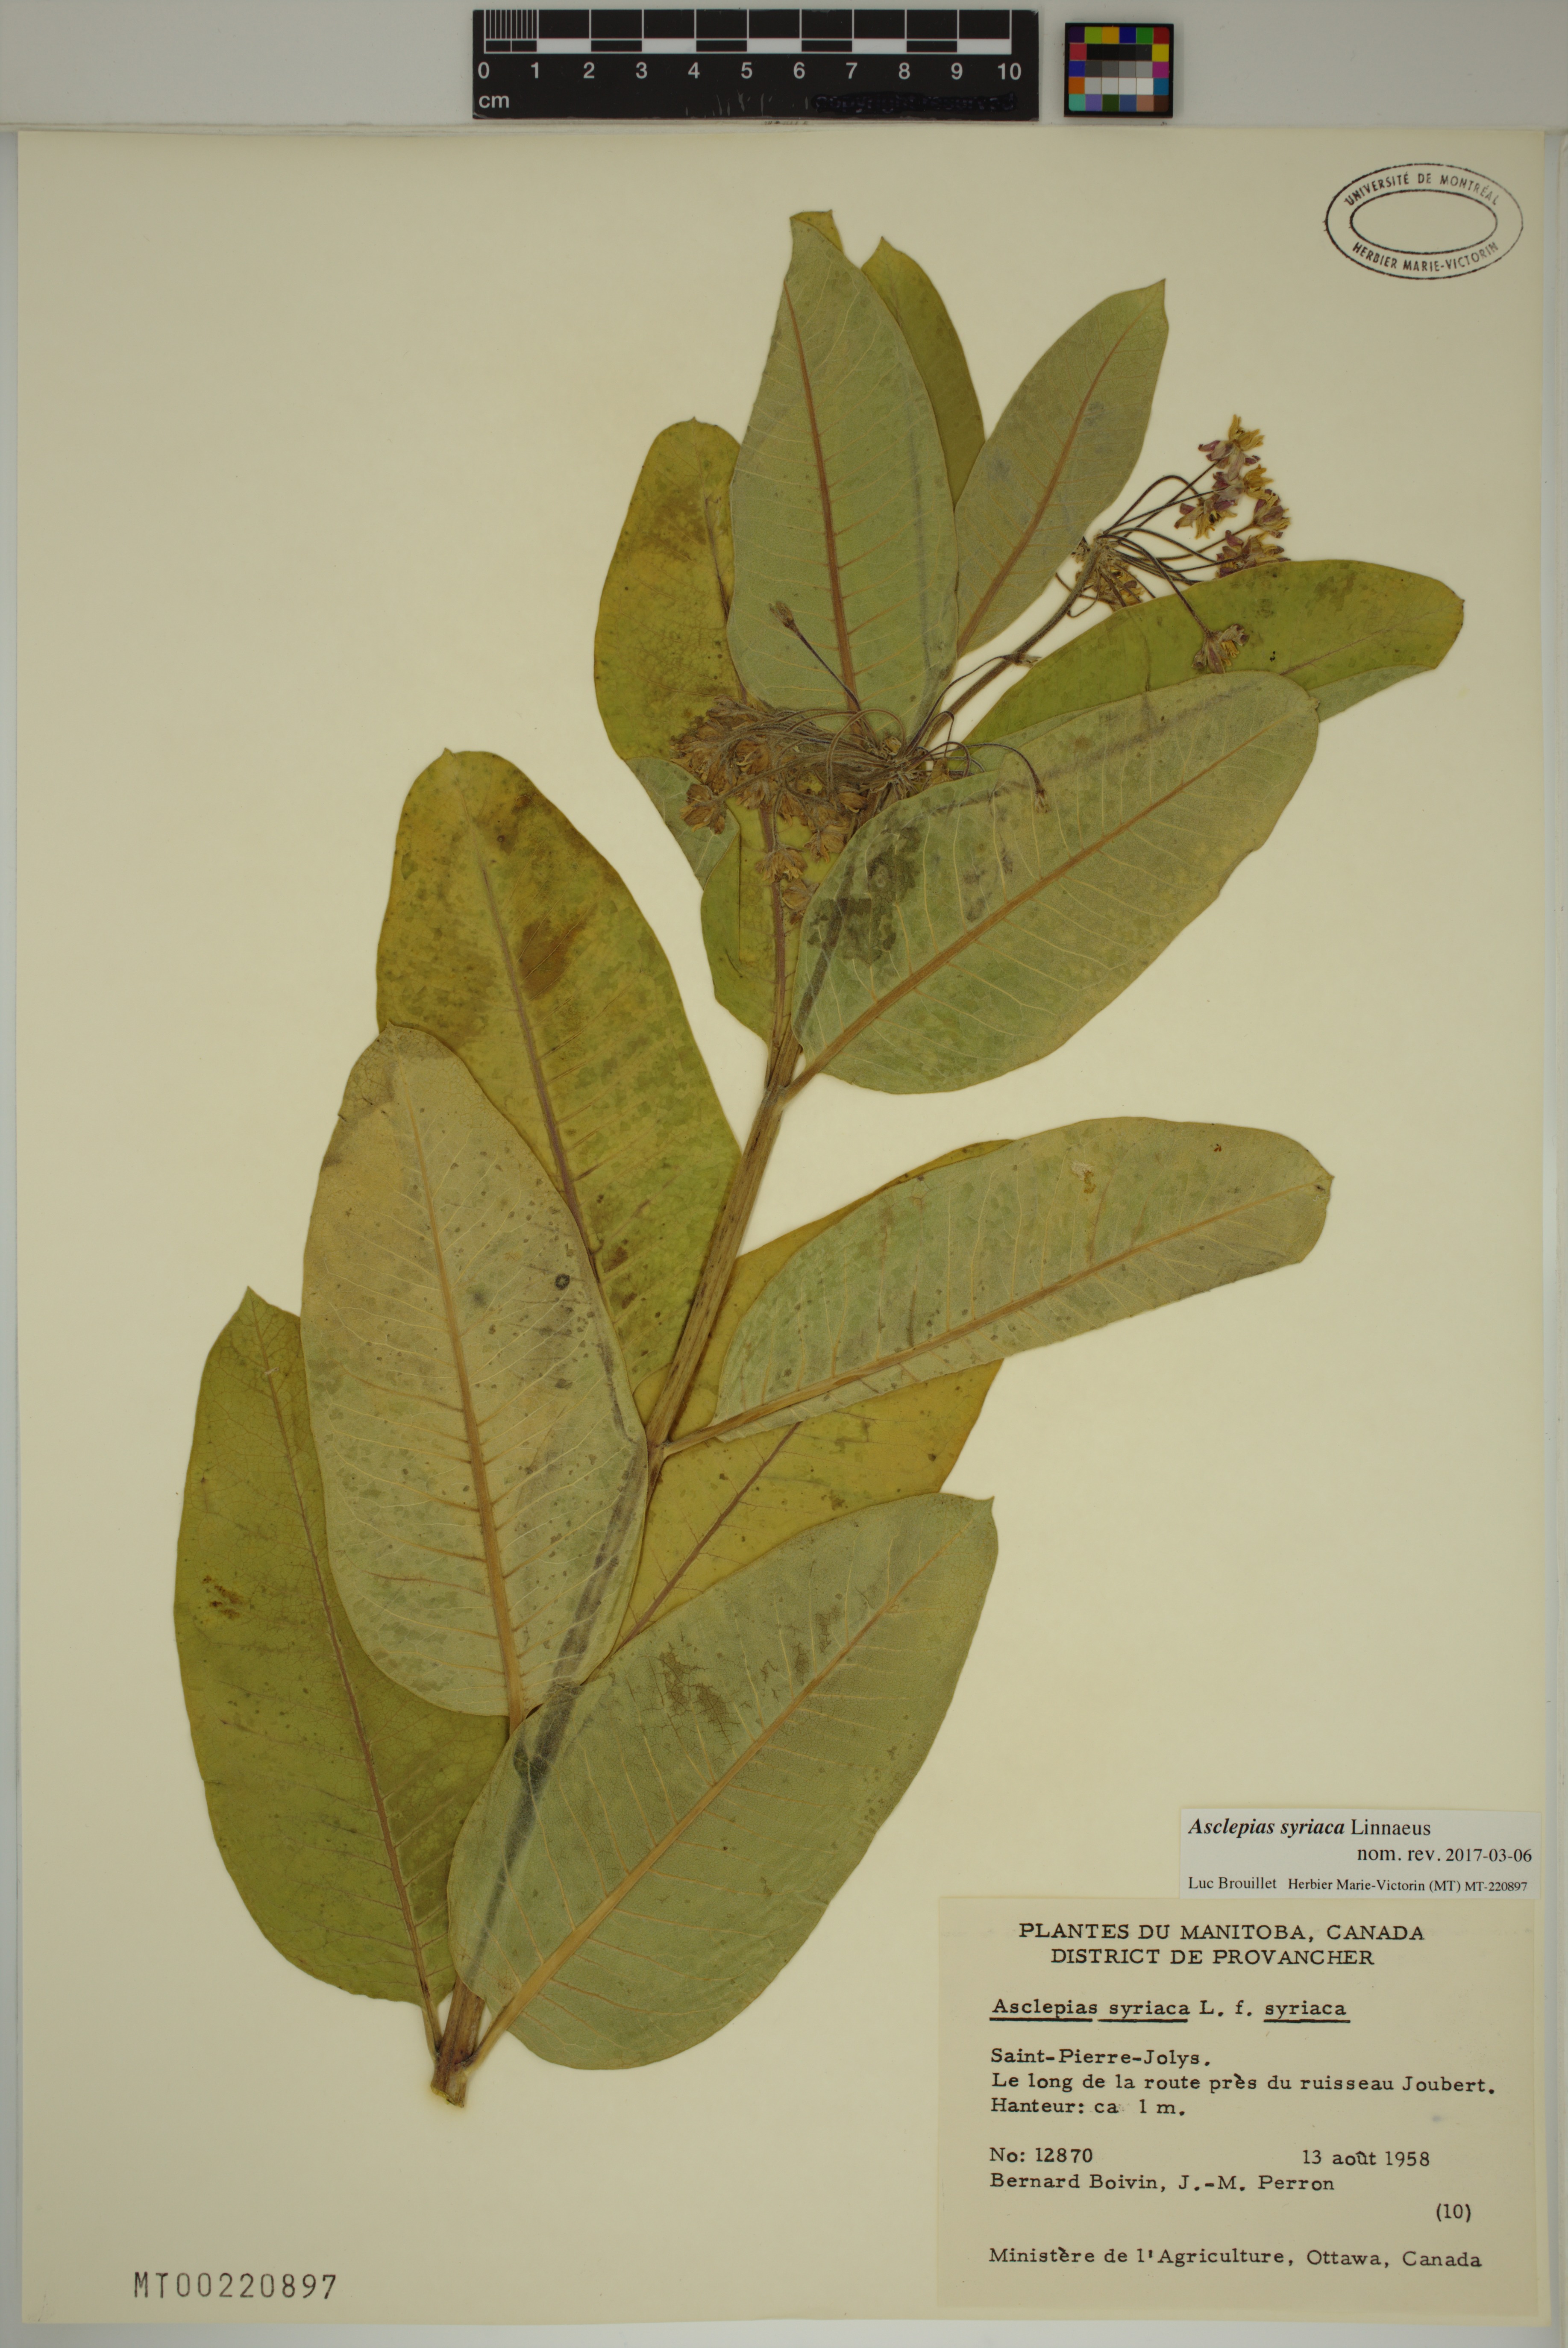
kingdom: Plantae
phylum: Tracheophyta
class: Magnoliopsida
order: Gentianales
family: Apocynaceae
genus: Asclepias
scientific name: Asclepias syriaca
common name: Common milkweed
